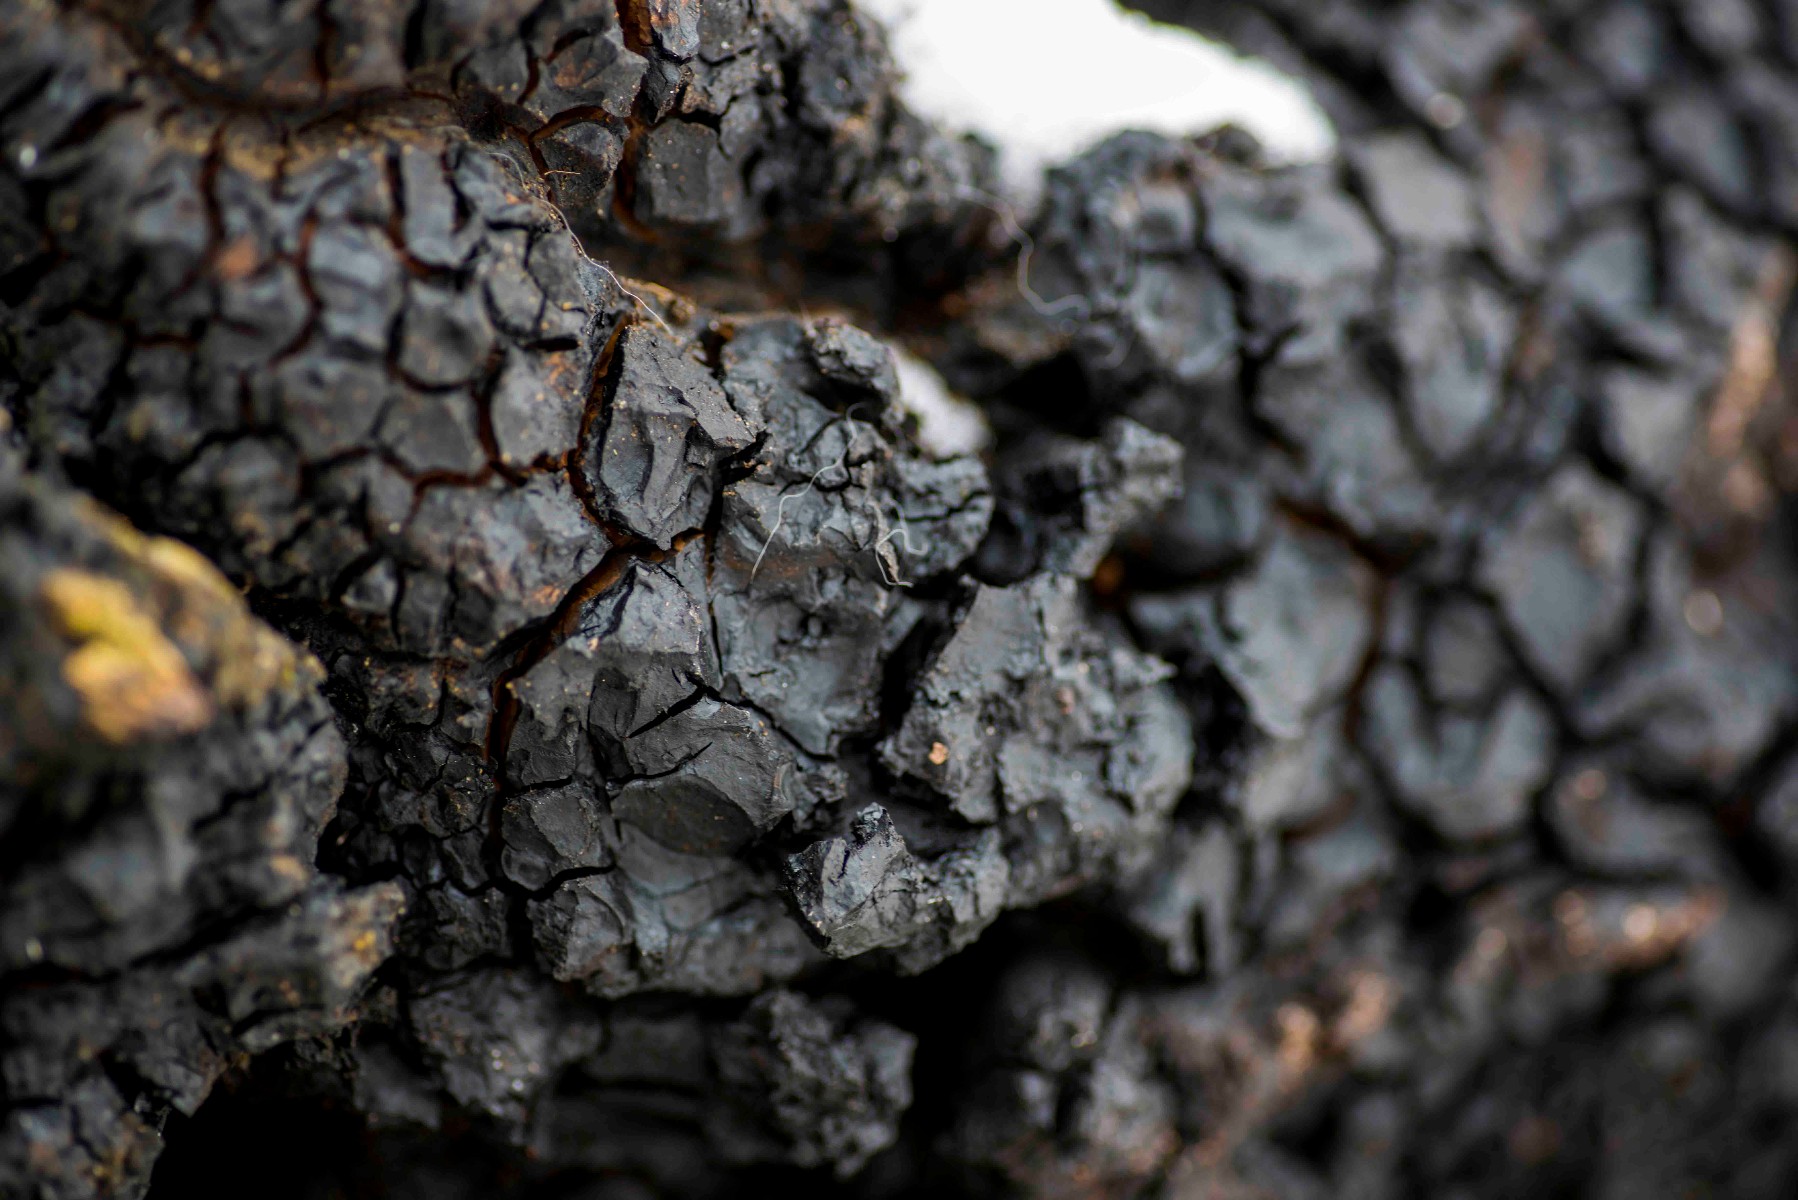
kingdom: Fungi
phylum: Basidiomycota
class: Agaricomycetes
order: Hymenochaetales
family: Hymenochaetaceae
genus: Inonotus
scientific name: Inonotus obliquus
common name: birke-spejlporesvamp
